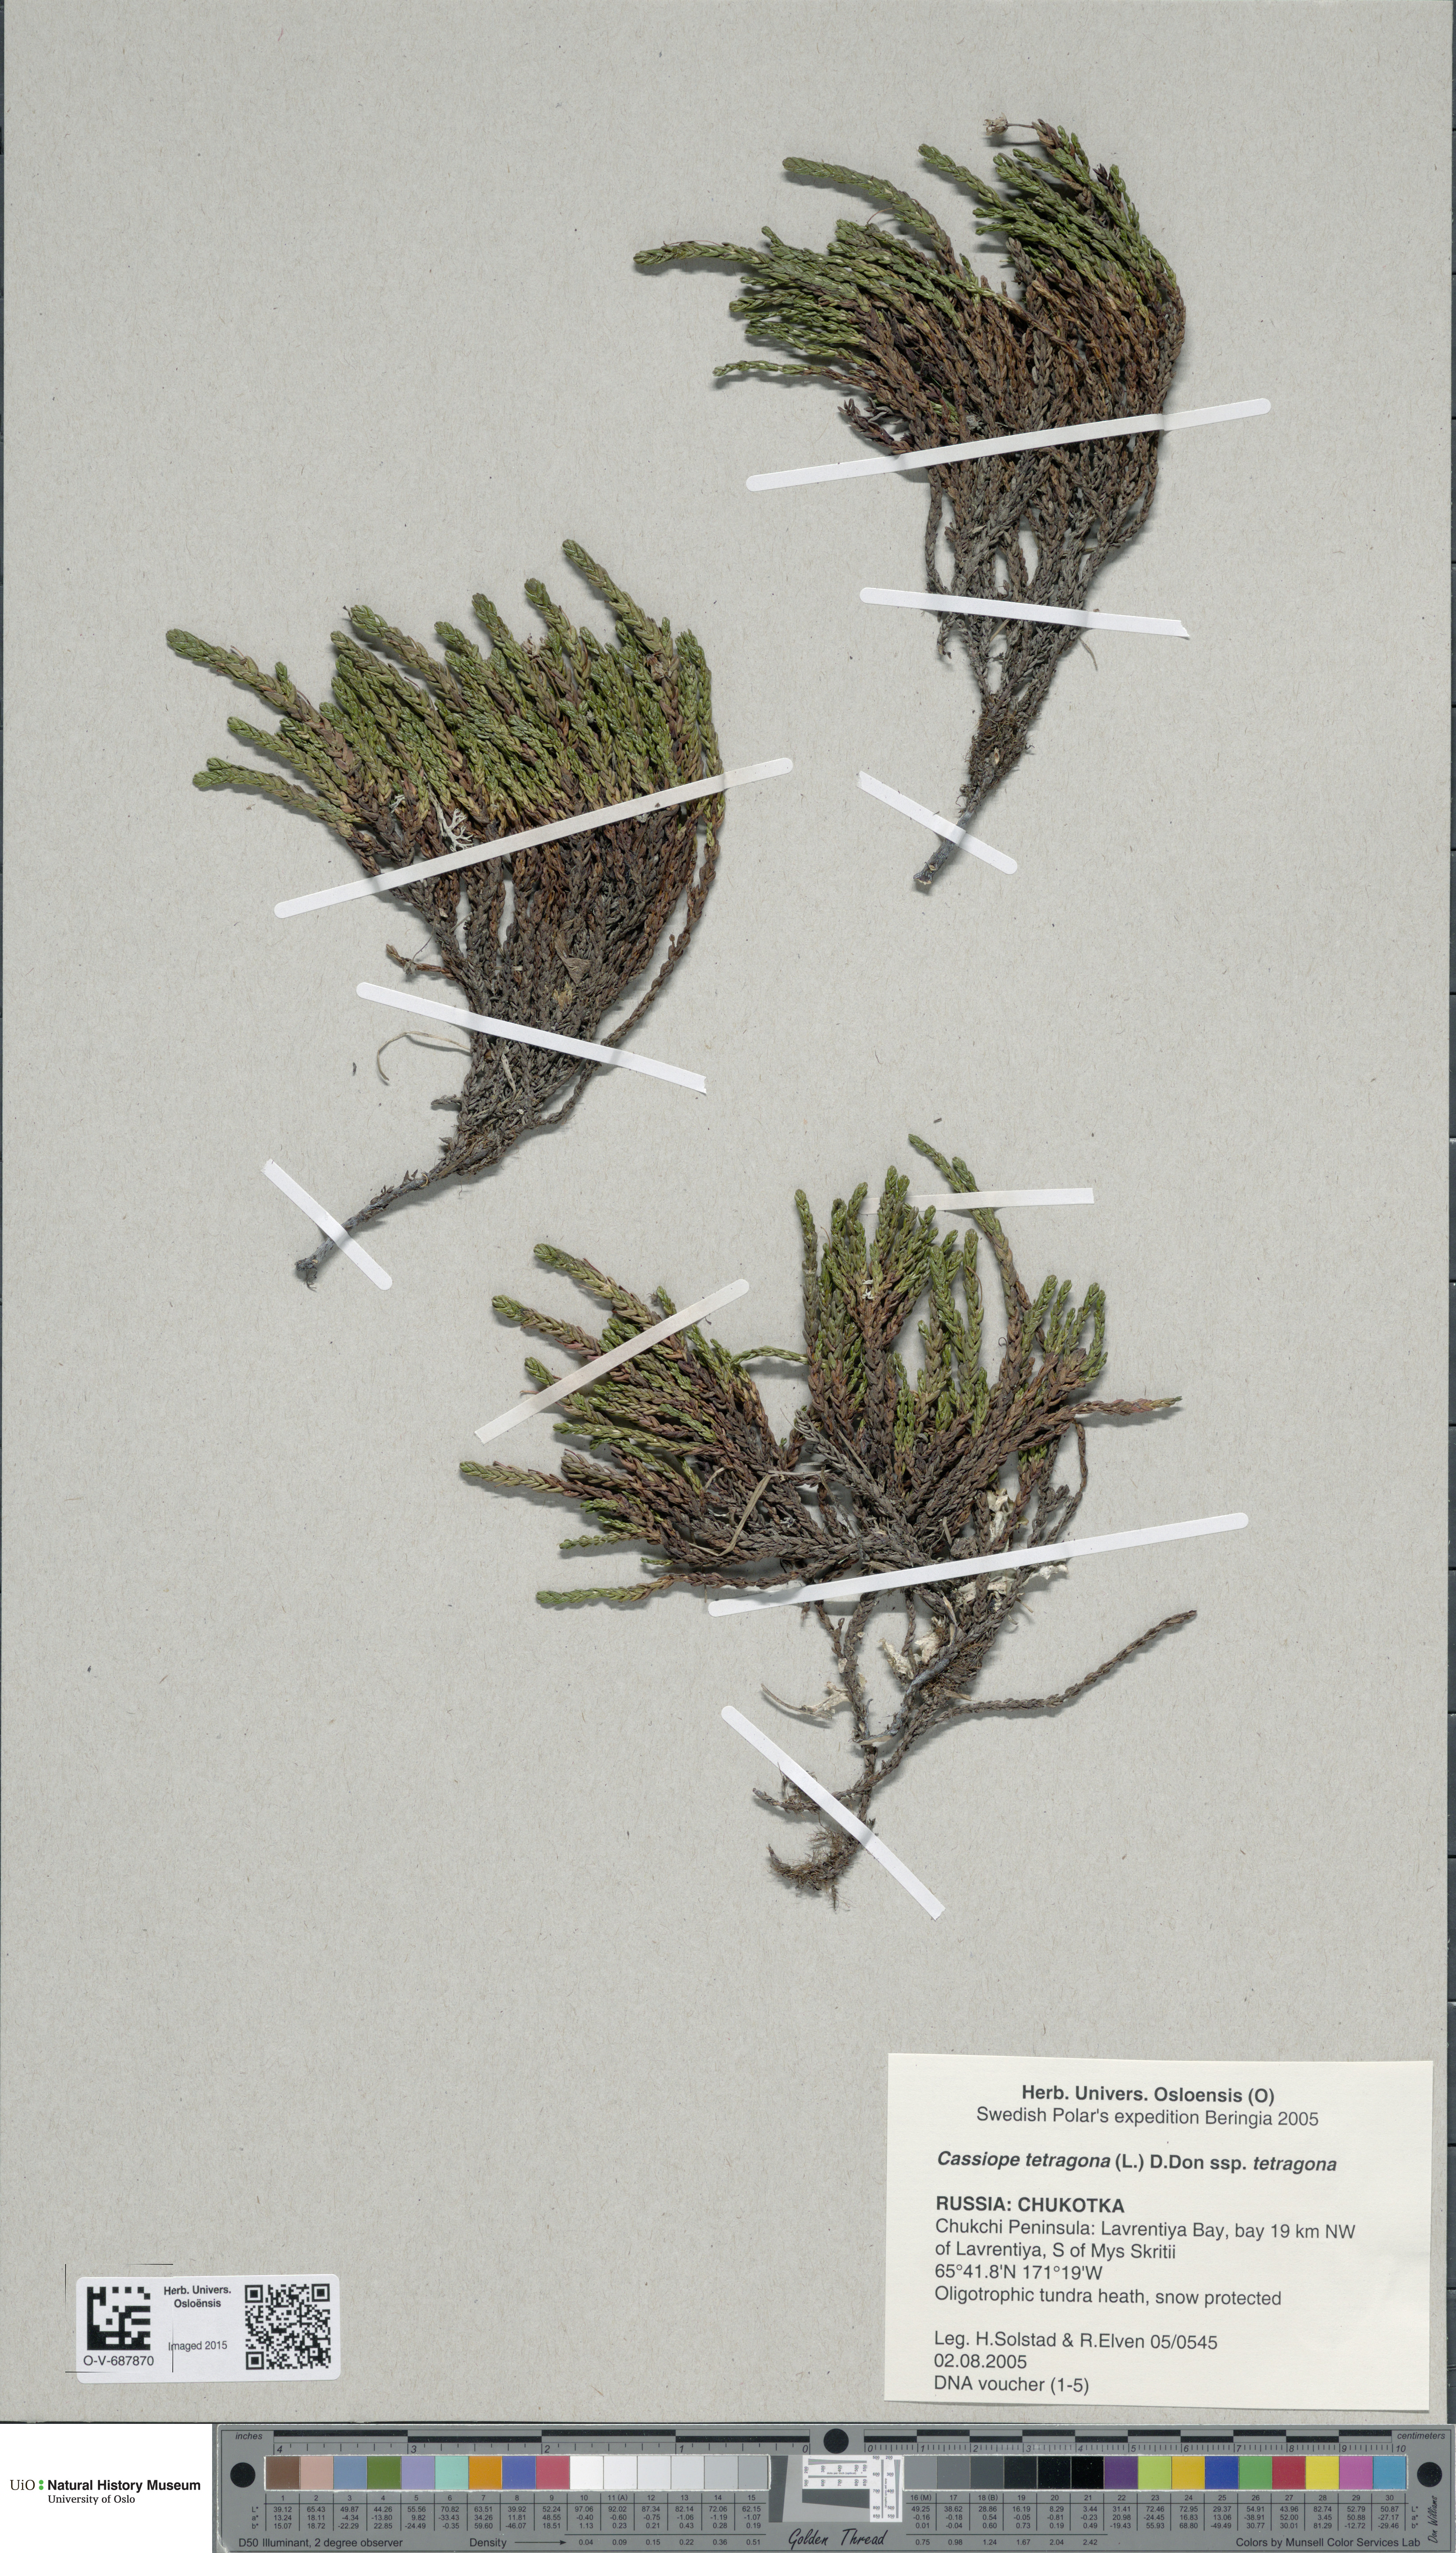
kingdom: Plantae
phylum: Tracheophyta
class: Magnoliopsida
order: Ericales
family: Ericaceae
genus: Cassiope
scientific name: Cassiope tetragona
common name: Arctic bell heather
